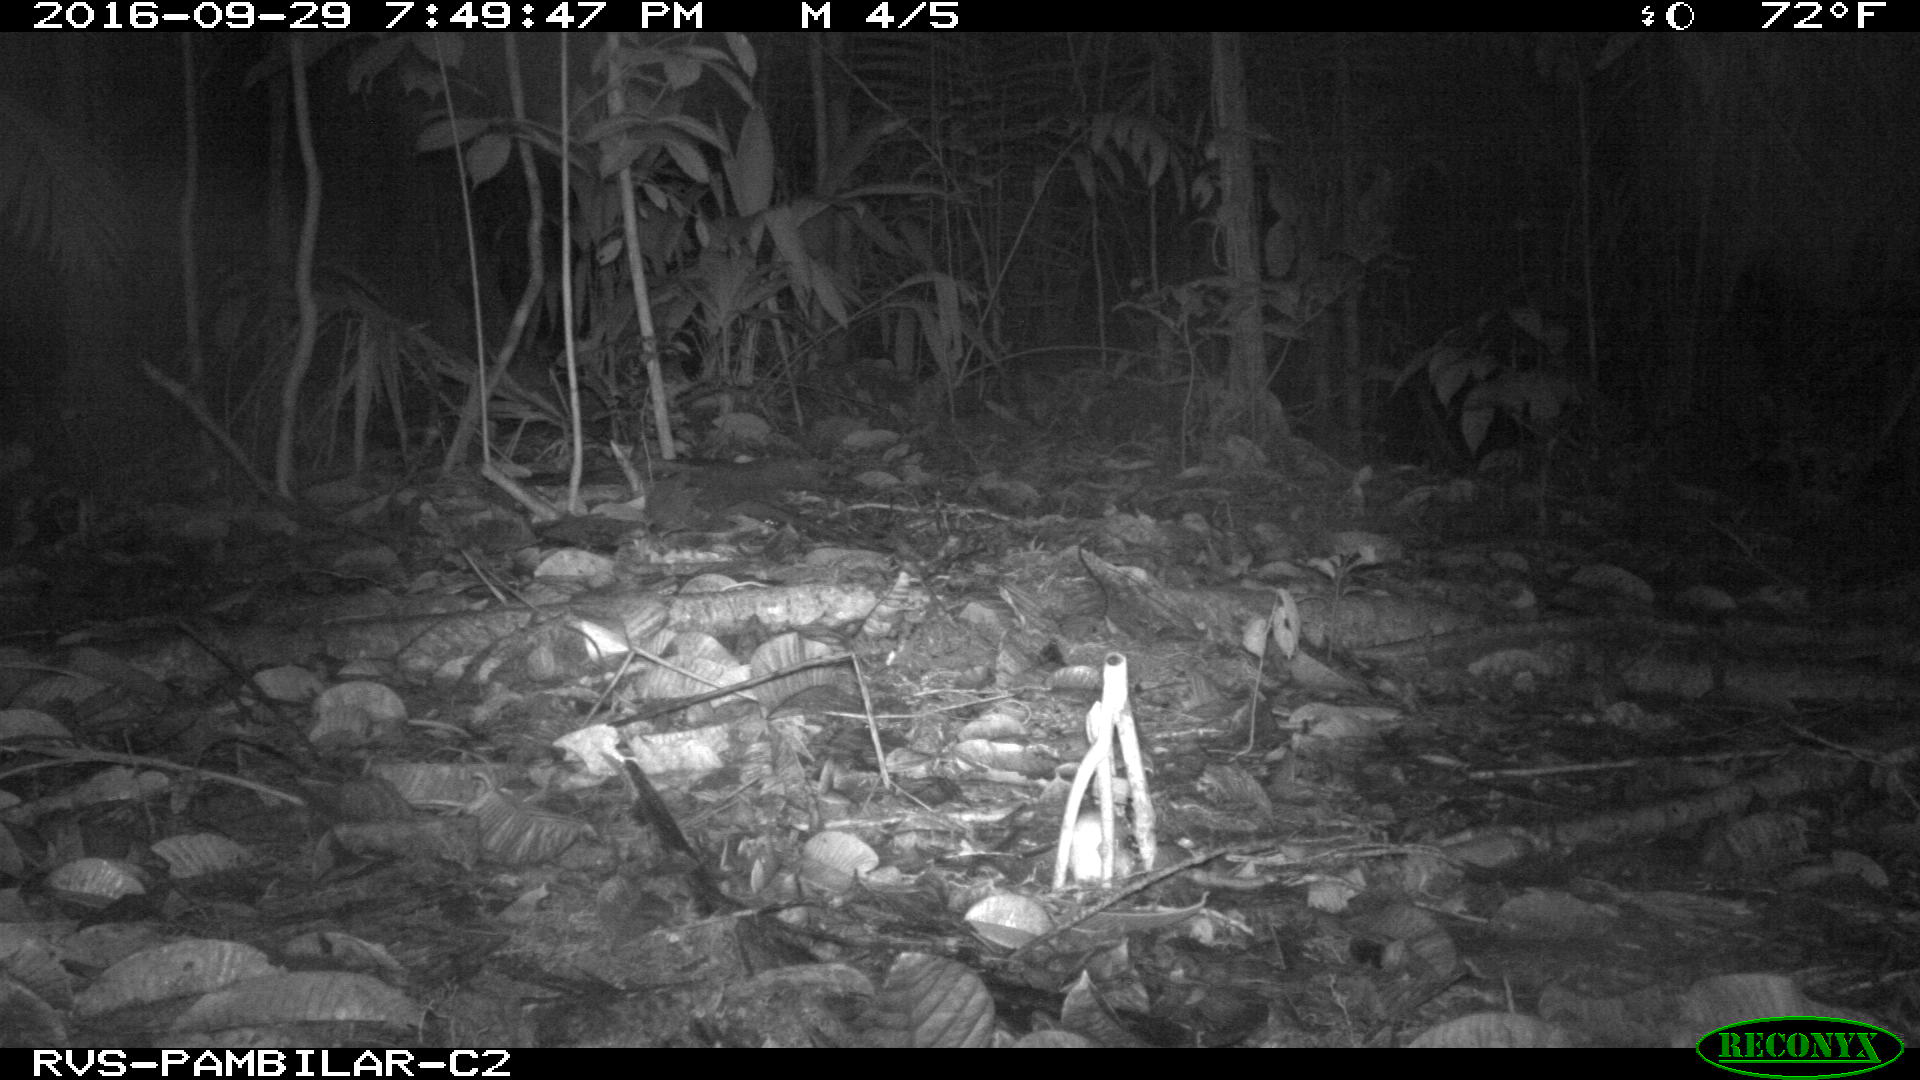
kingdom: Animalia
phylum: Chordata
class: Mammalia
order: Cingulata
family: Dasypodidae
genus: Dasypus
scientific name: Dasypus novemcinctus
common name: Nine-banded armadillo
